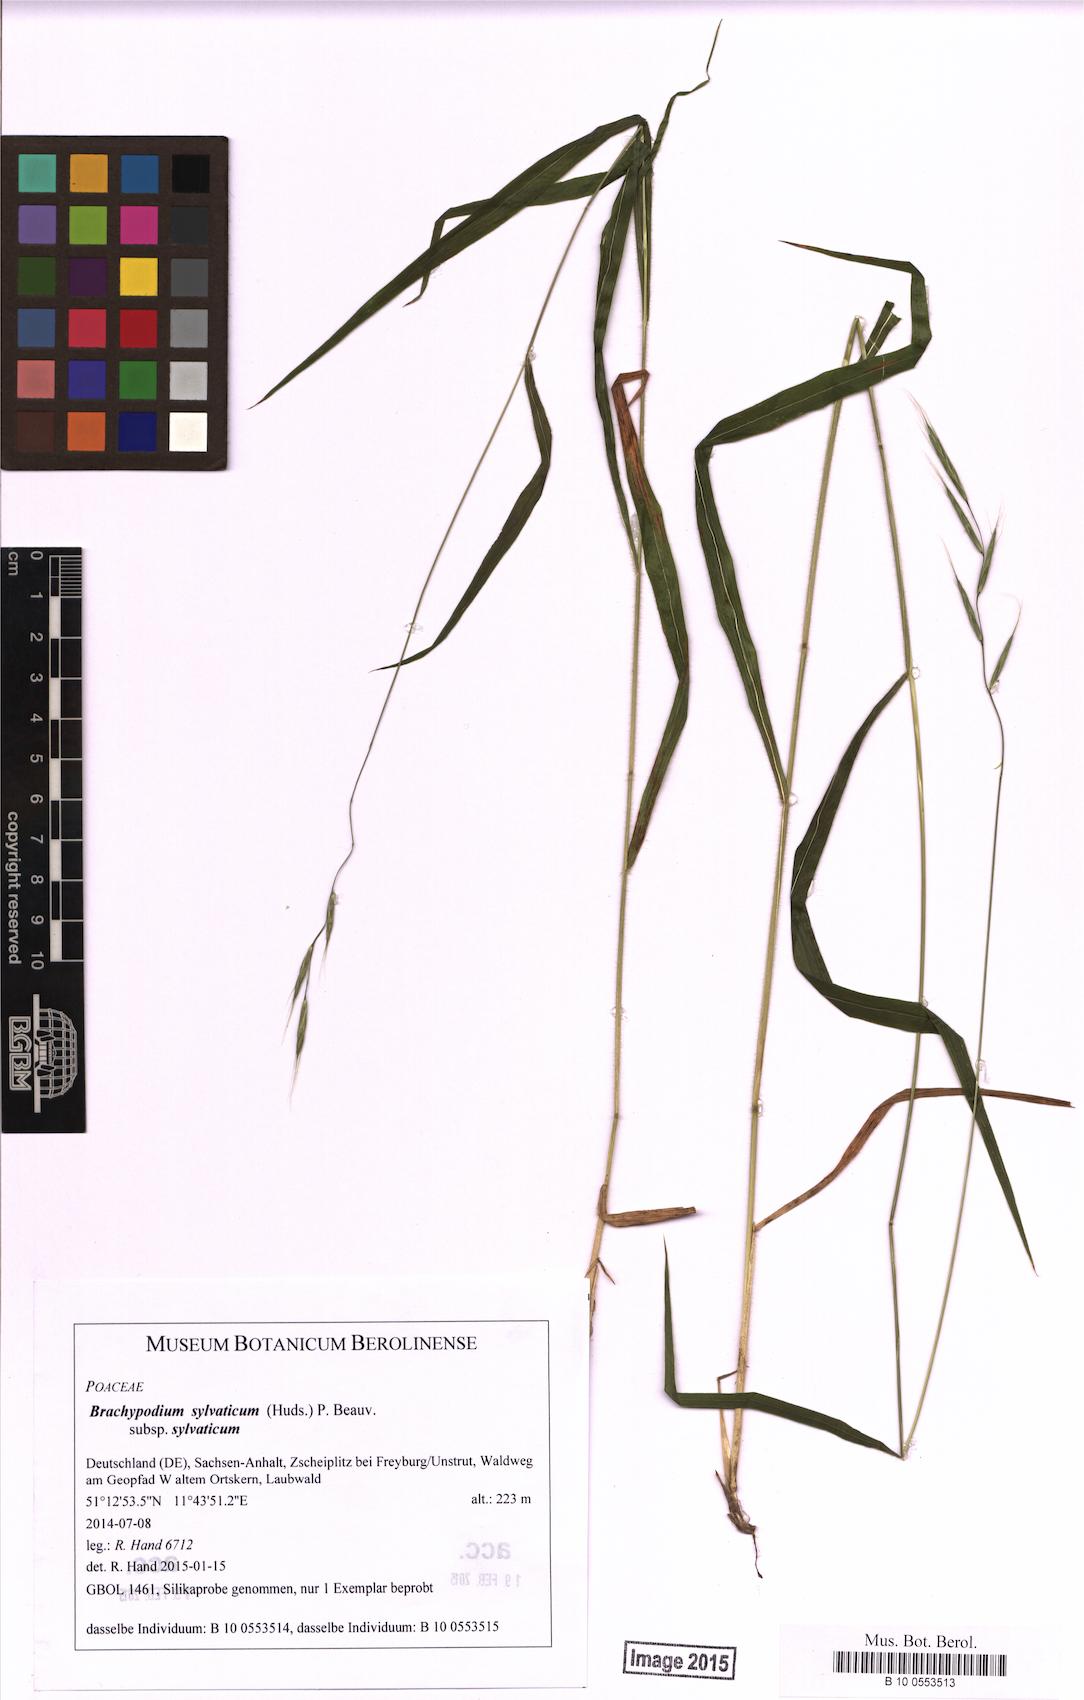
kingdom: Plantae
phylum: Tracheophyta
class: Liliopsida
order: Poales
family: Poaceae
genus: Brachypodium
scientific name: Brachypodium sylvaticum
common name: False-brome
